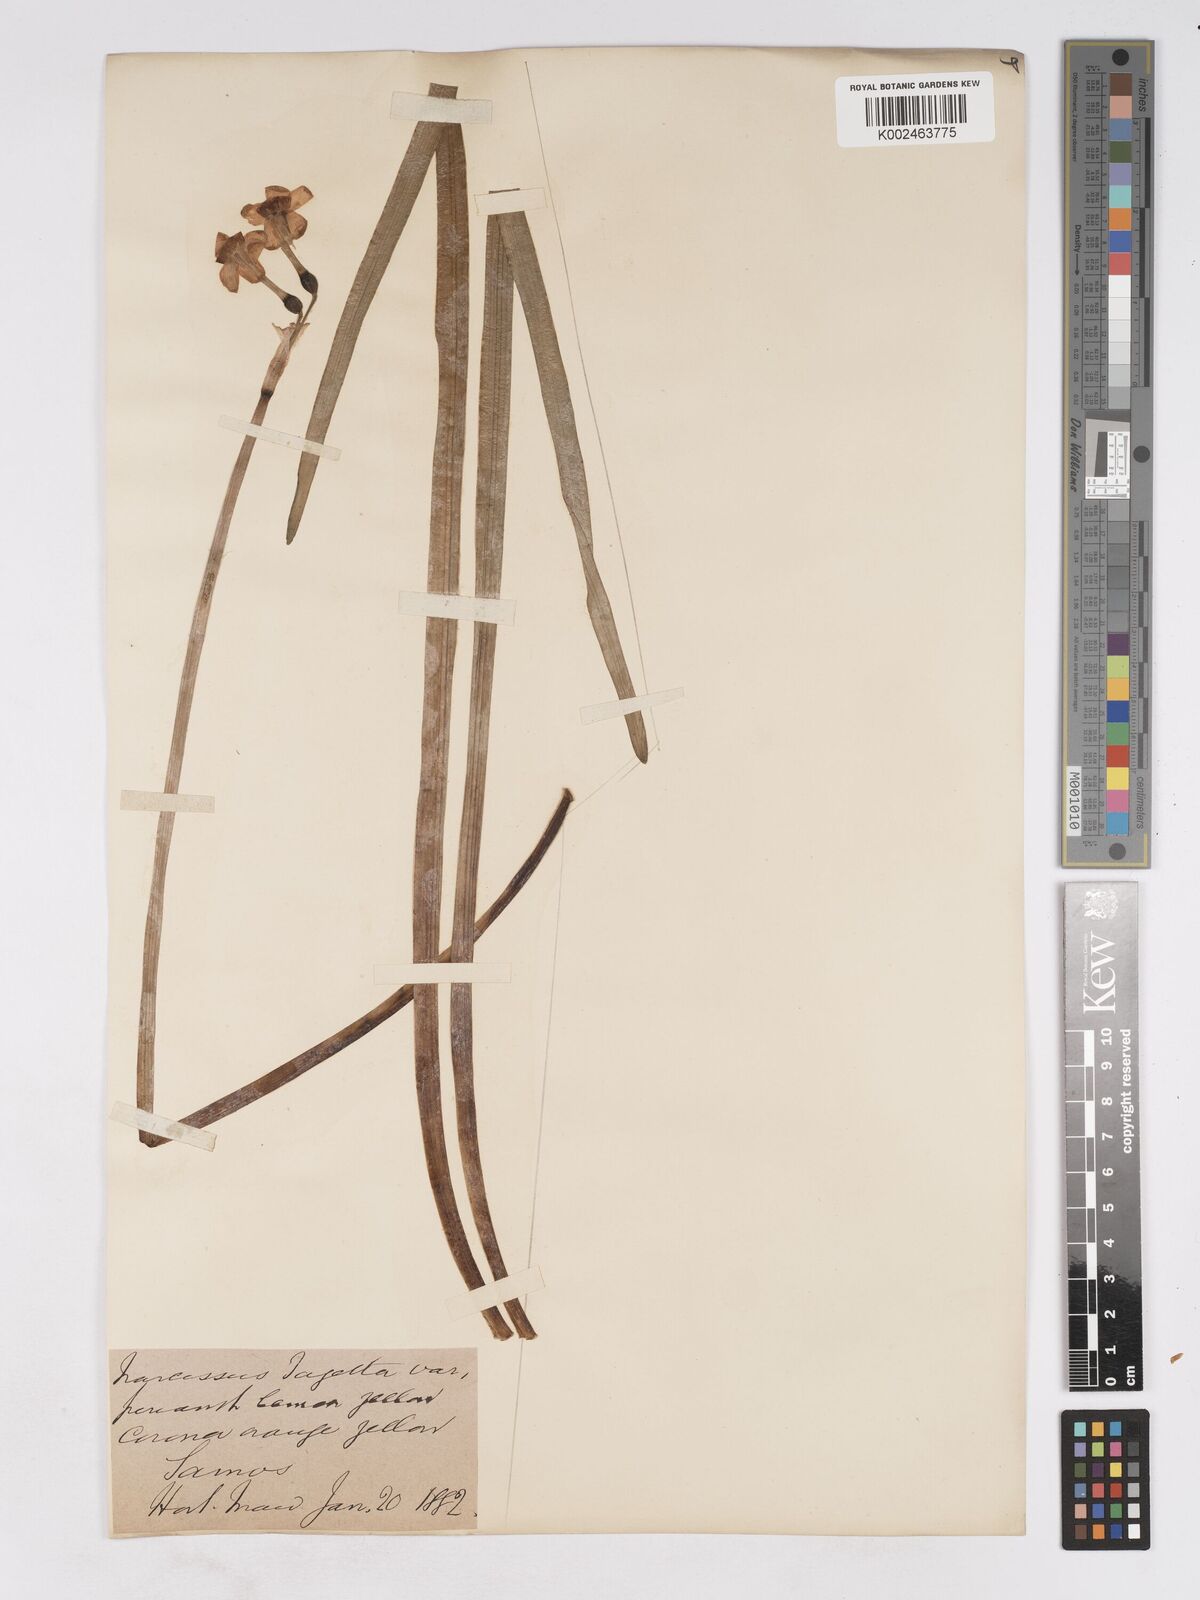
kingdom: Plantae
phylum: Tracheophyta
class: Liliopsida
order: Asparagales
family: Amaryllidaceae
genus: Narcissus
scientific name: Narcissus
